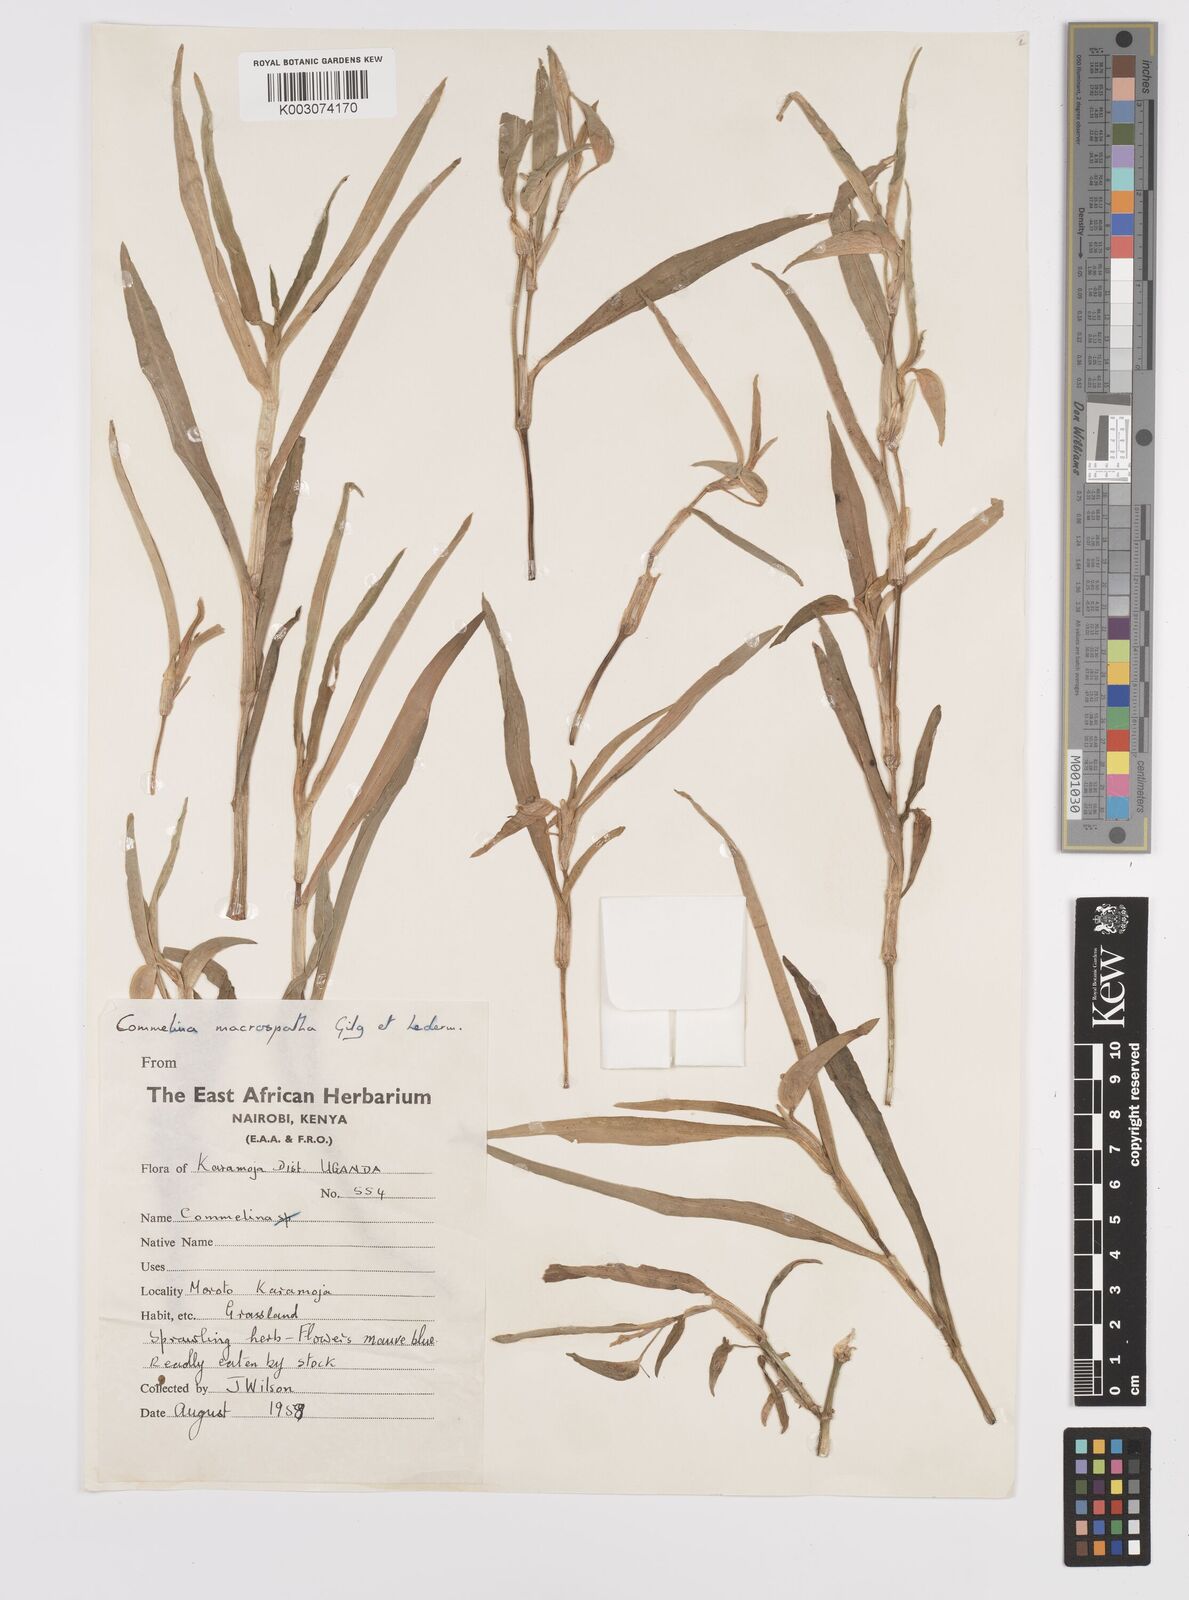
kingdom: Plantae
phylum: Tracheophyta
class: Liliopsida
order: Commelinales
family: Commelinaceae
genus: Commelina
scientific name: Commelina macrospatha
